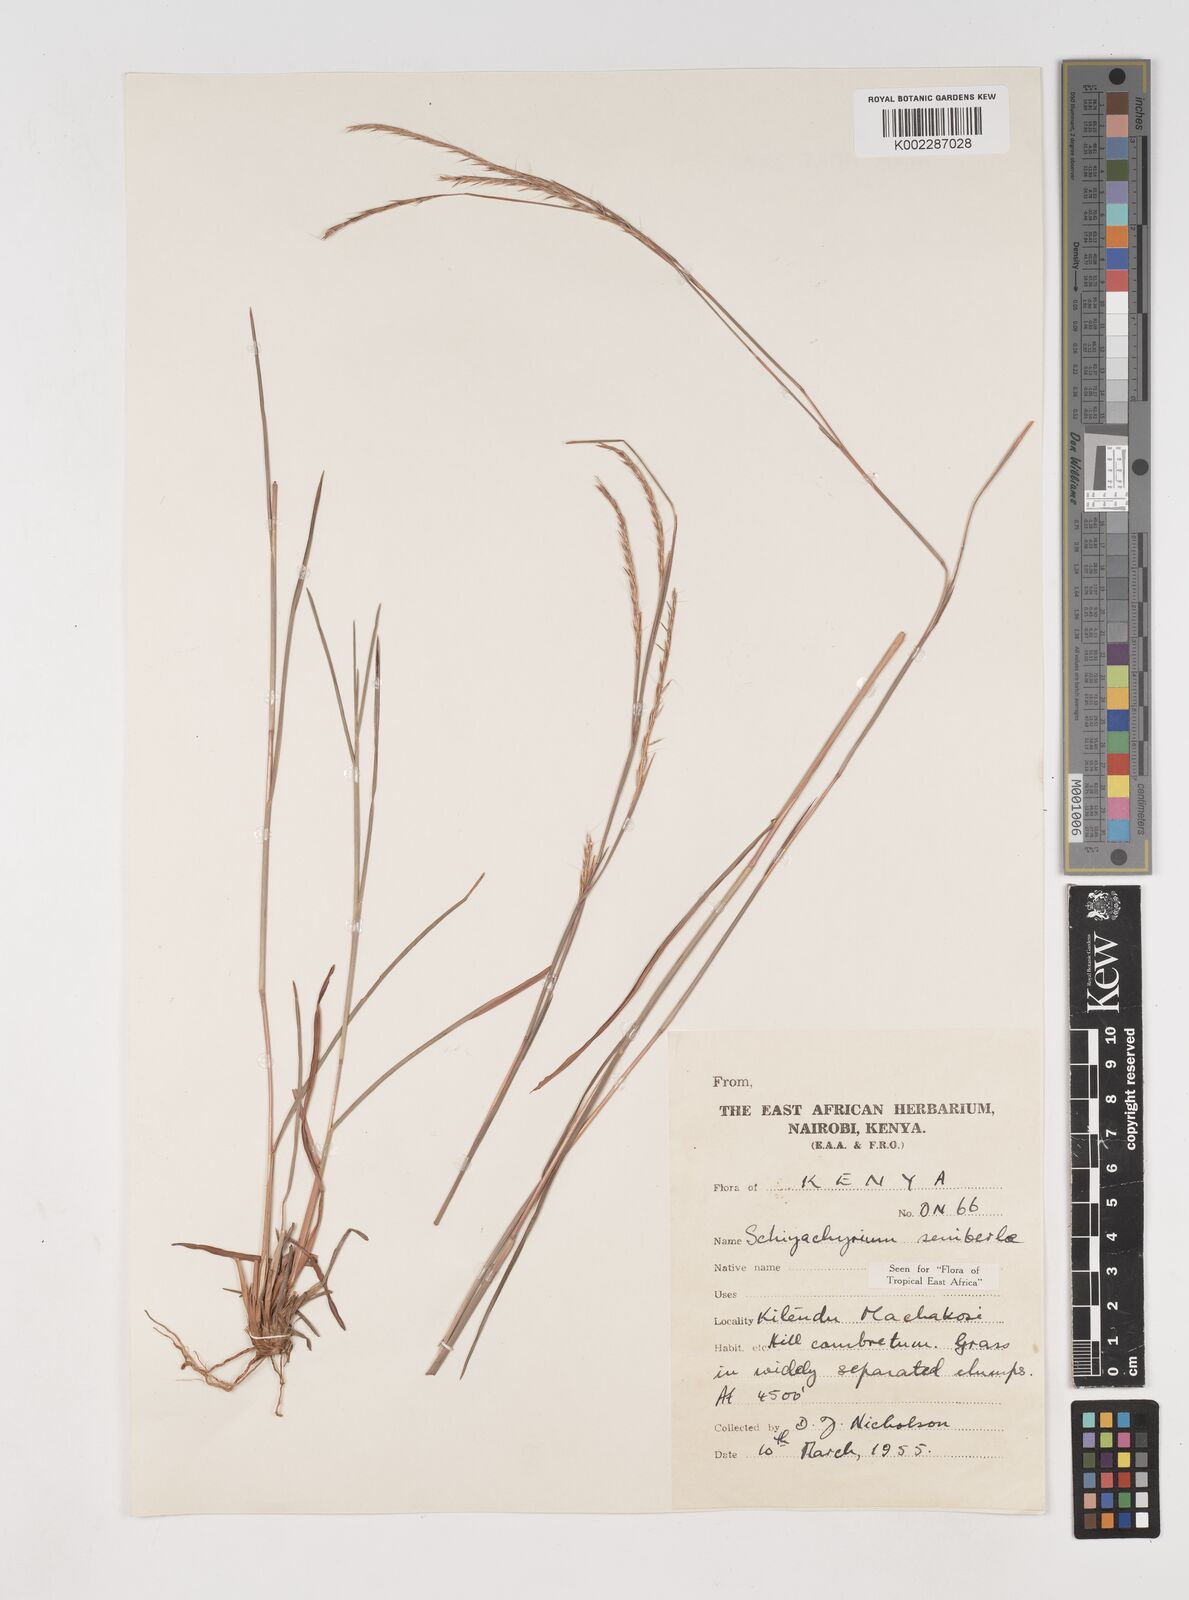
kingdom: Plantae
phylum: Tracheophyta
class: Liliopsida
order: Poales
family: Poaceae
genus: Schizachyrium
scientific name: Schizachyrium sanguineum
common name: Crimson bluestem
